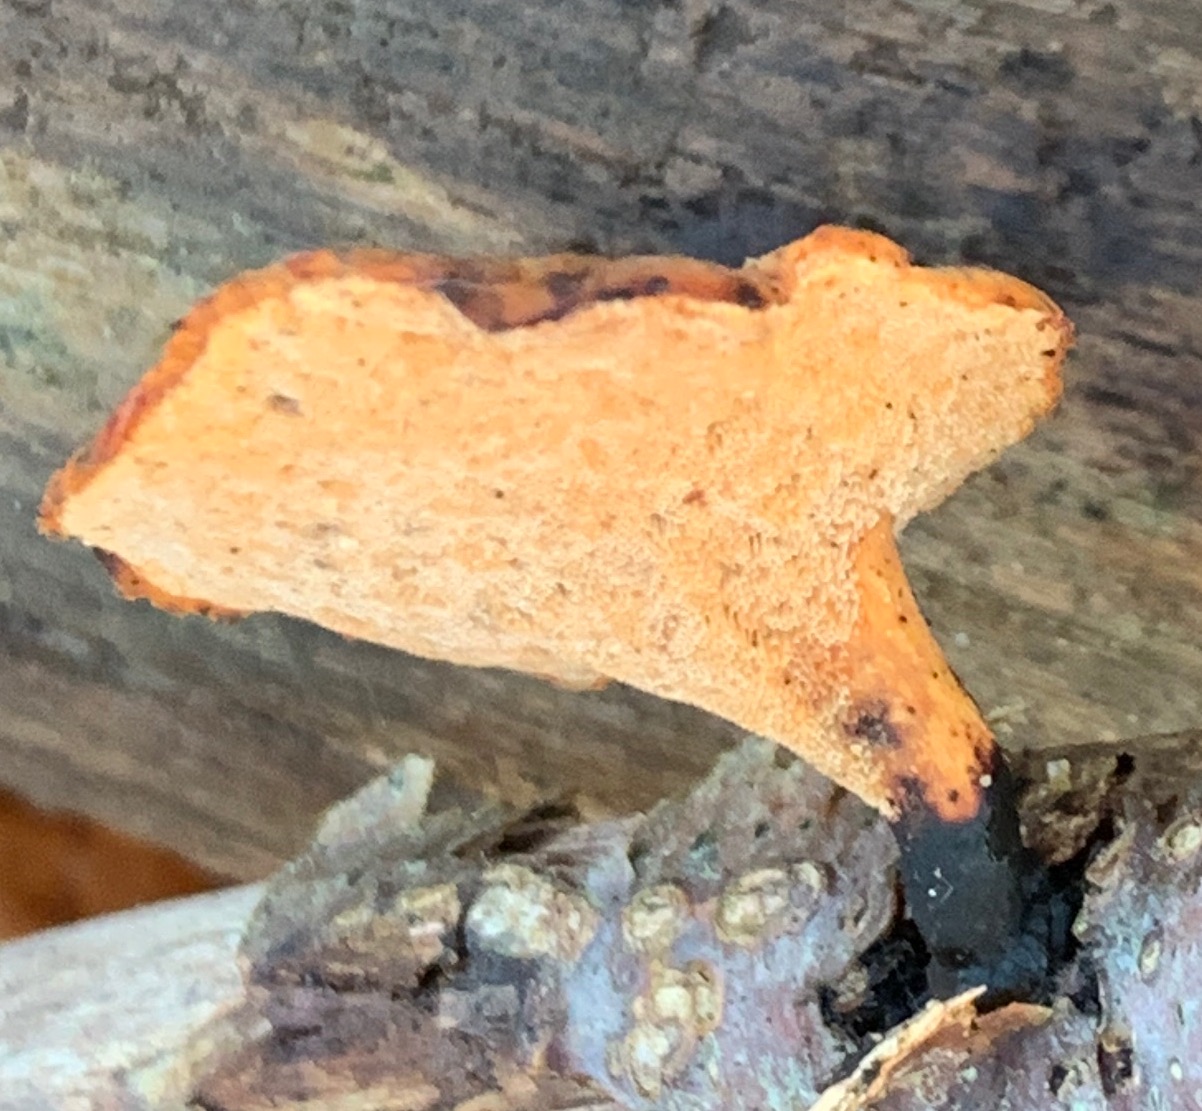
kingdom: Fungi
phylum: Basidiomycota
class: Agaricomycetes
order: Polyporales
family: Polyporaceae
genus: Cerioporus
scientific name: Cerioporus varius
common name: foranderlig stilkporesvamp
